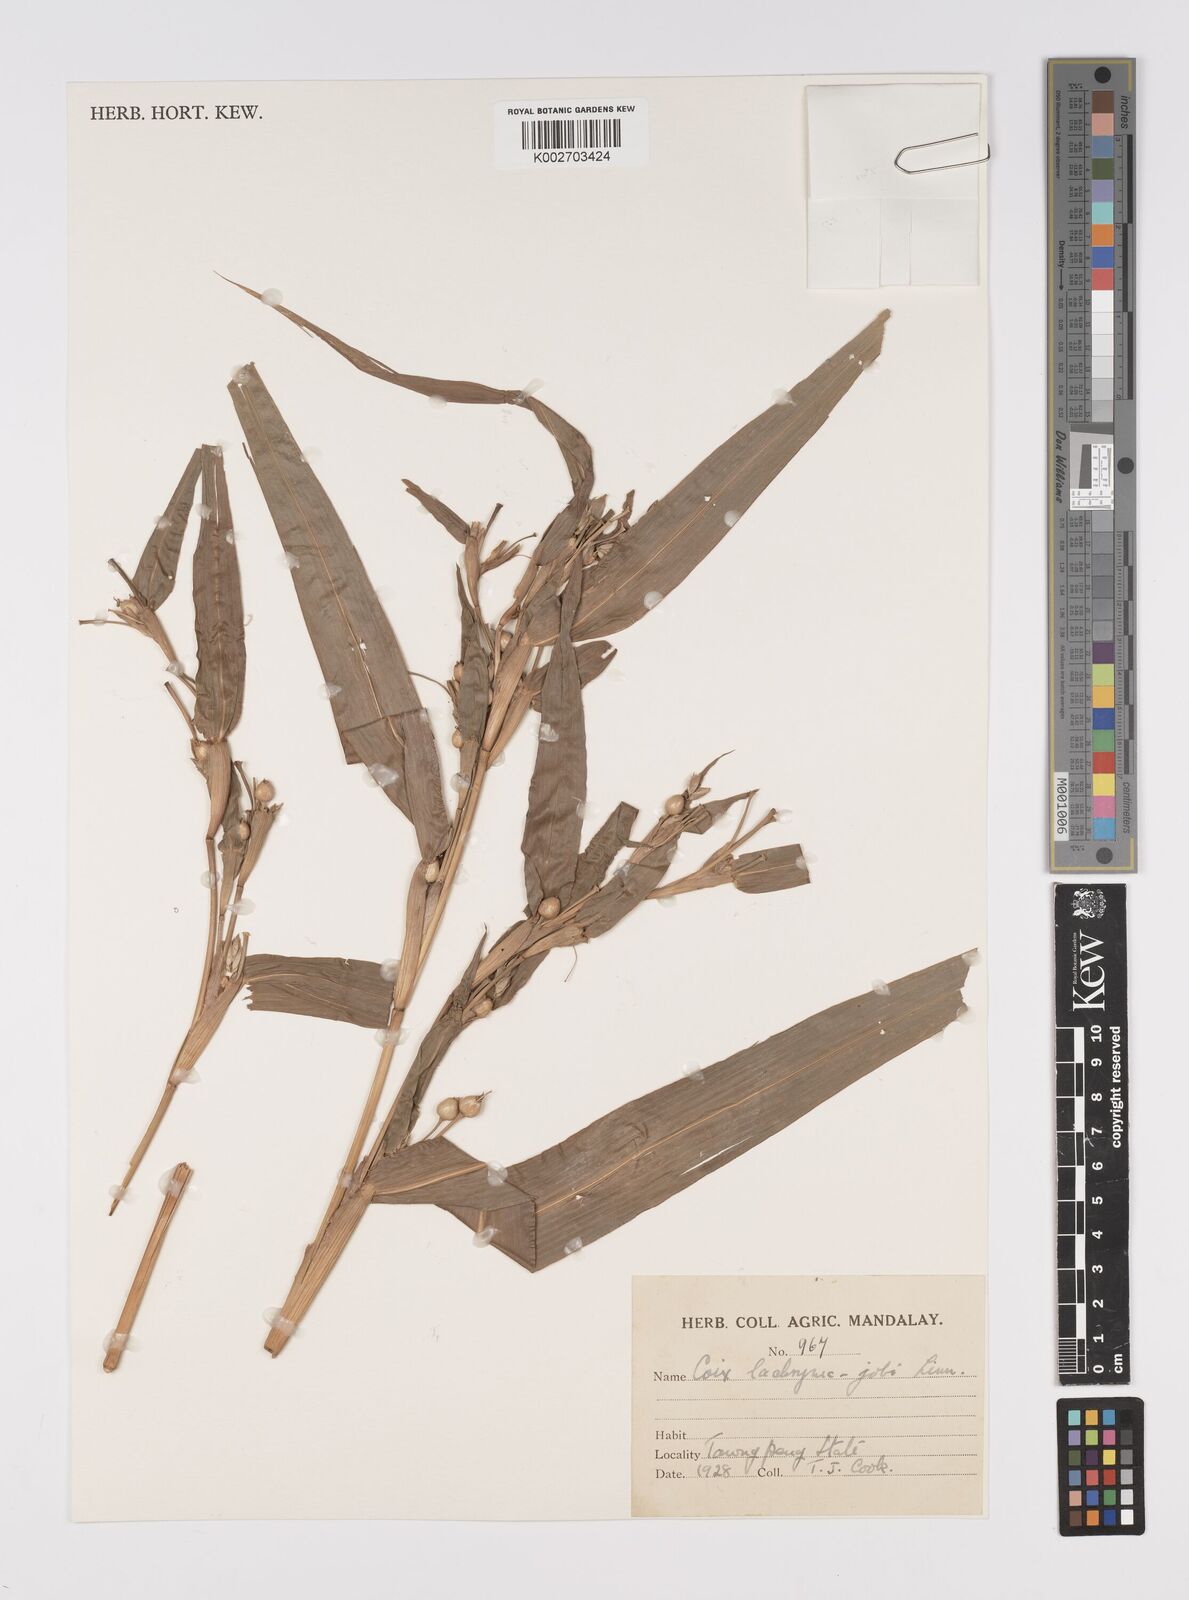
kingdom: Plantae
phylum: Tracheophyta
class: Liliopsida
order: Poales
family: Poaceae
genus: Coix
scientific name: Coix lacryma-jobi
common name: Job's tears
